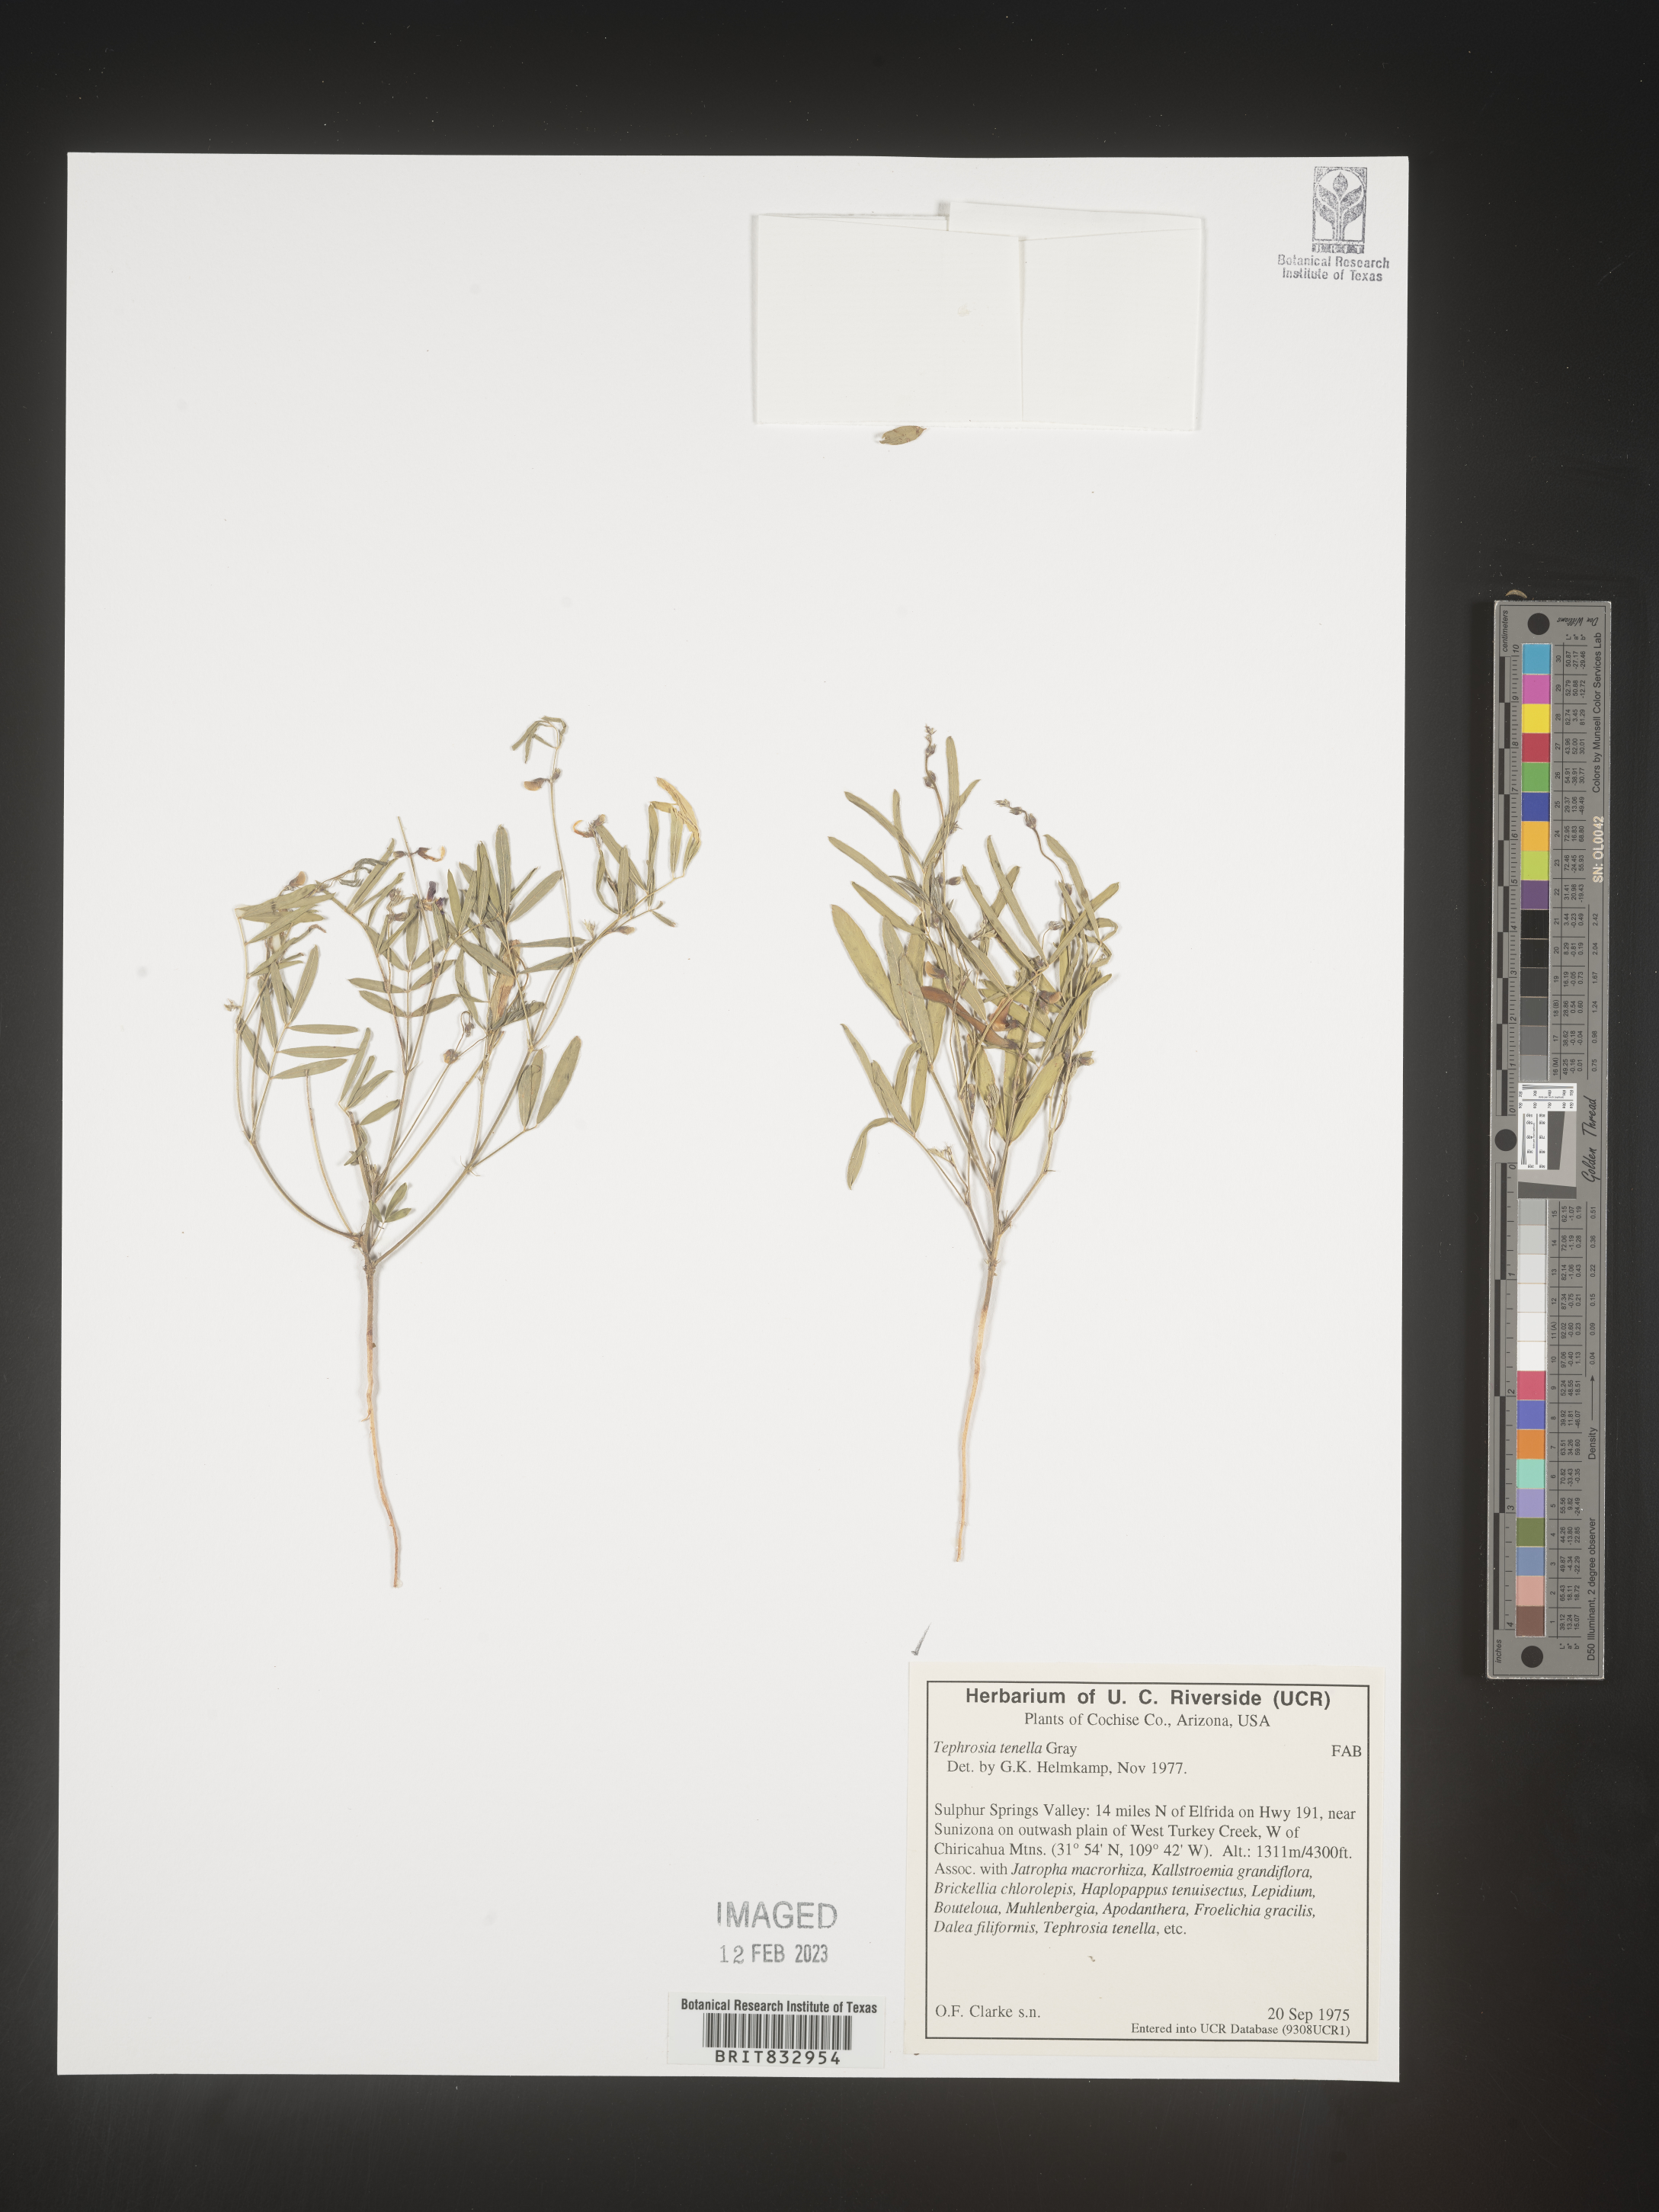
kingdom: Plantae
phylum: Tracheophyta
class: Magnoliopsida
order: Fabales
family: Fabaceae
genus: Tephrosia
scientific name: Tephrosia domingensis
